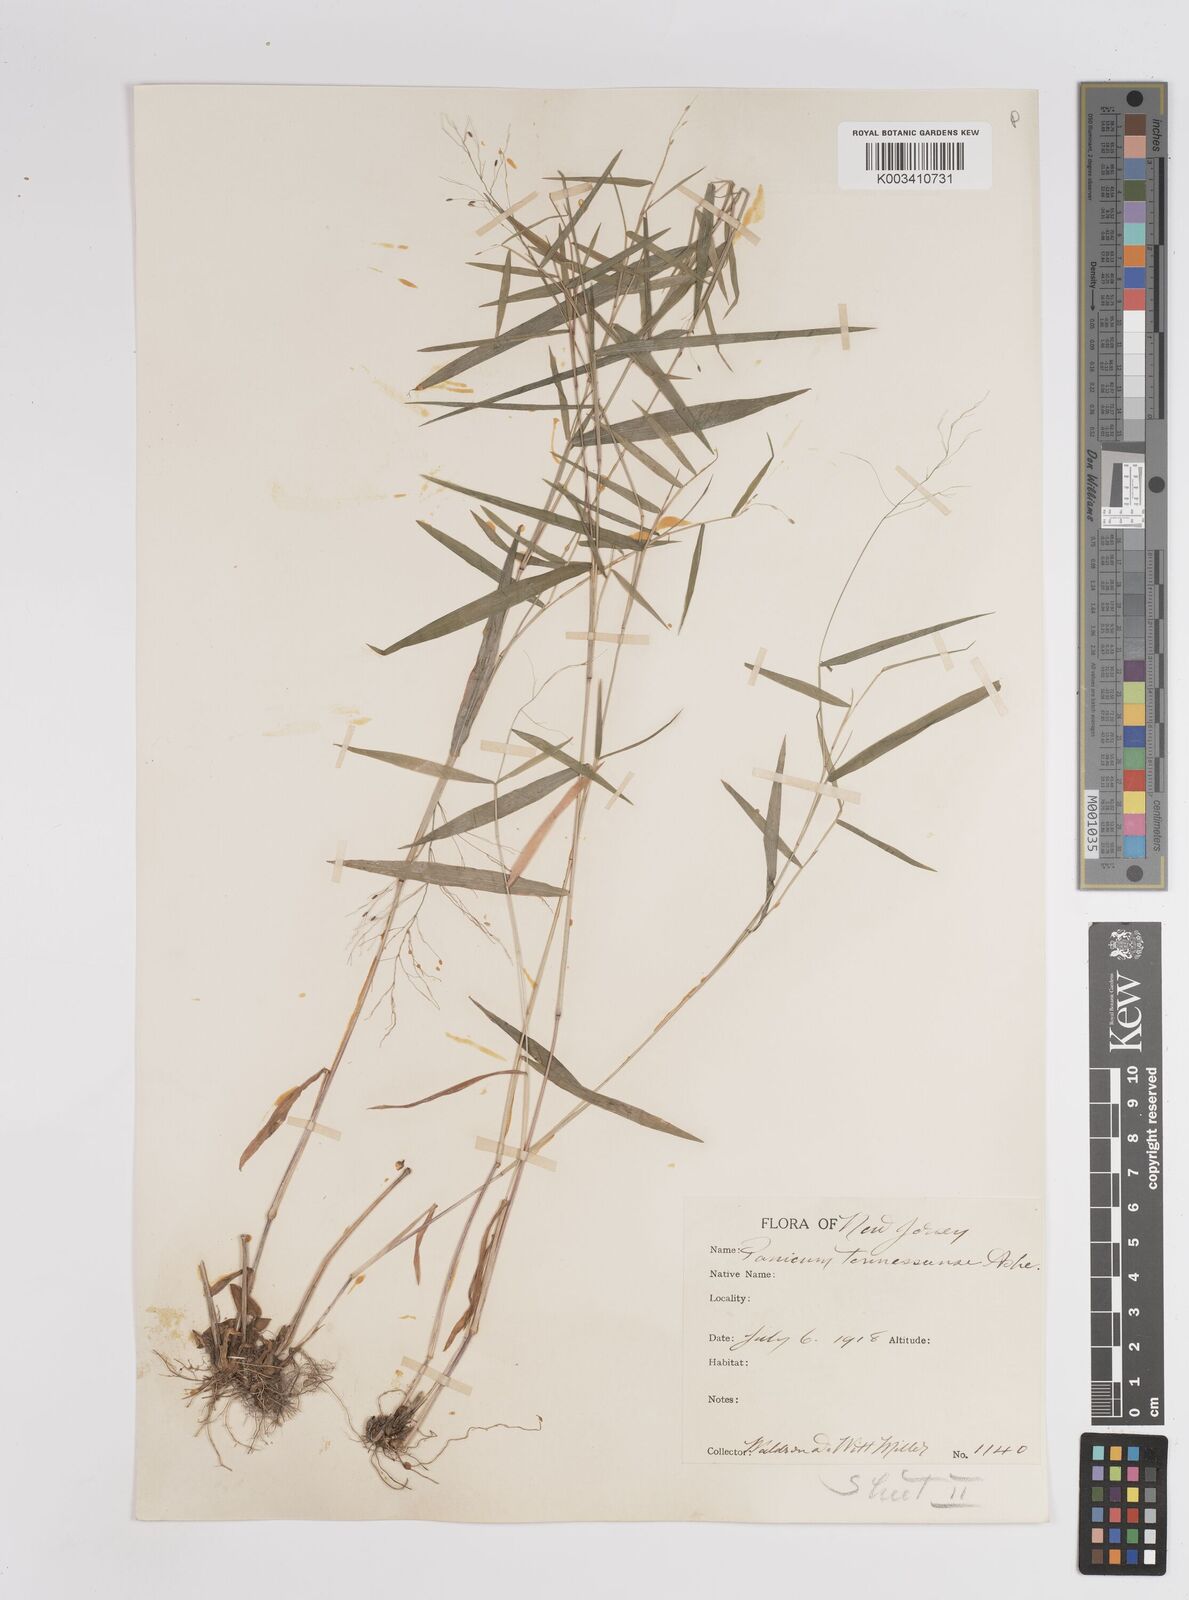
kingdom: Plantae
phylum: Tracheophyta
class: Liliopsida
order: Poales
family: Poaceae
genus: Dichanthelium
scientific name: Dichanthelium acuminatum
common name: Hairy panic grass
